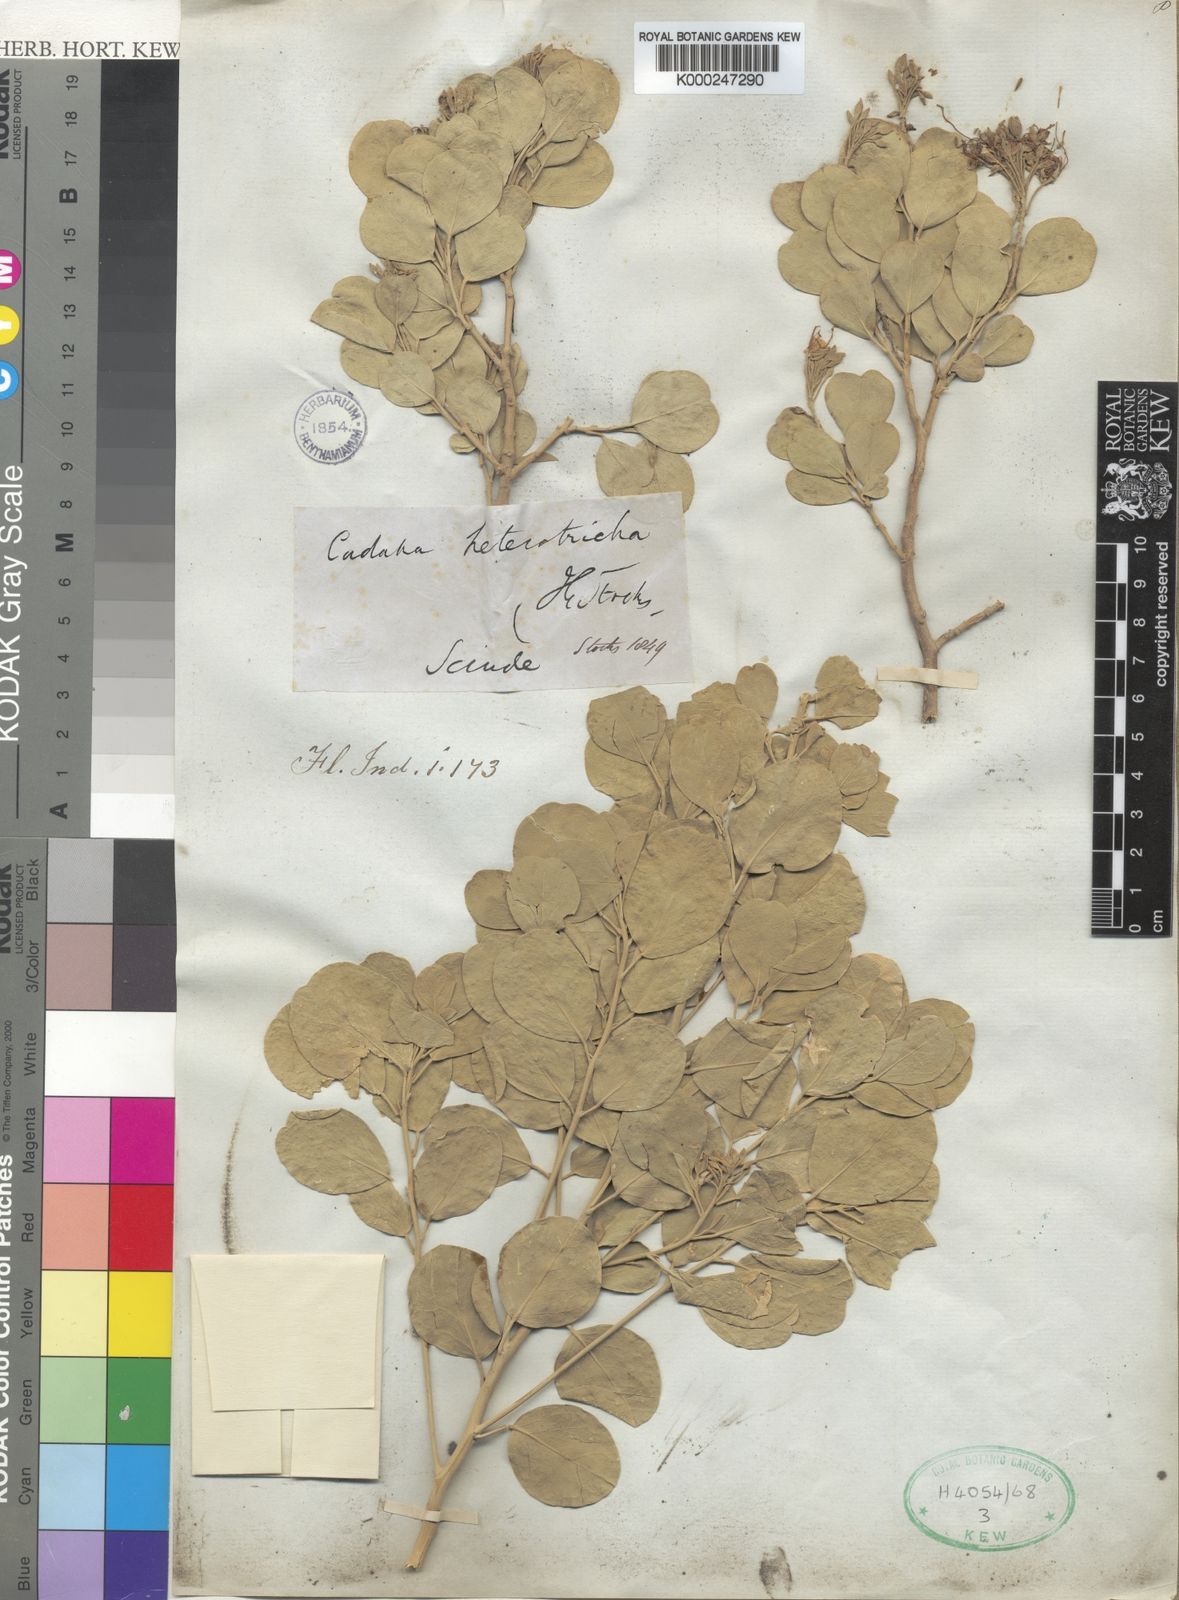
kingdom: Plantae
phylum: Tracheophyta
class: Magnoliopsida
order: Brassicales
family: Capparaceae
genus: Cadaba
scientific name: Cadaba
